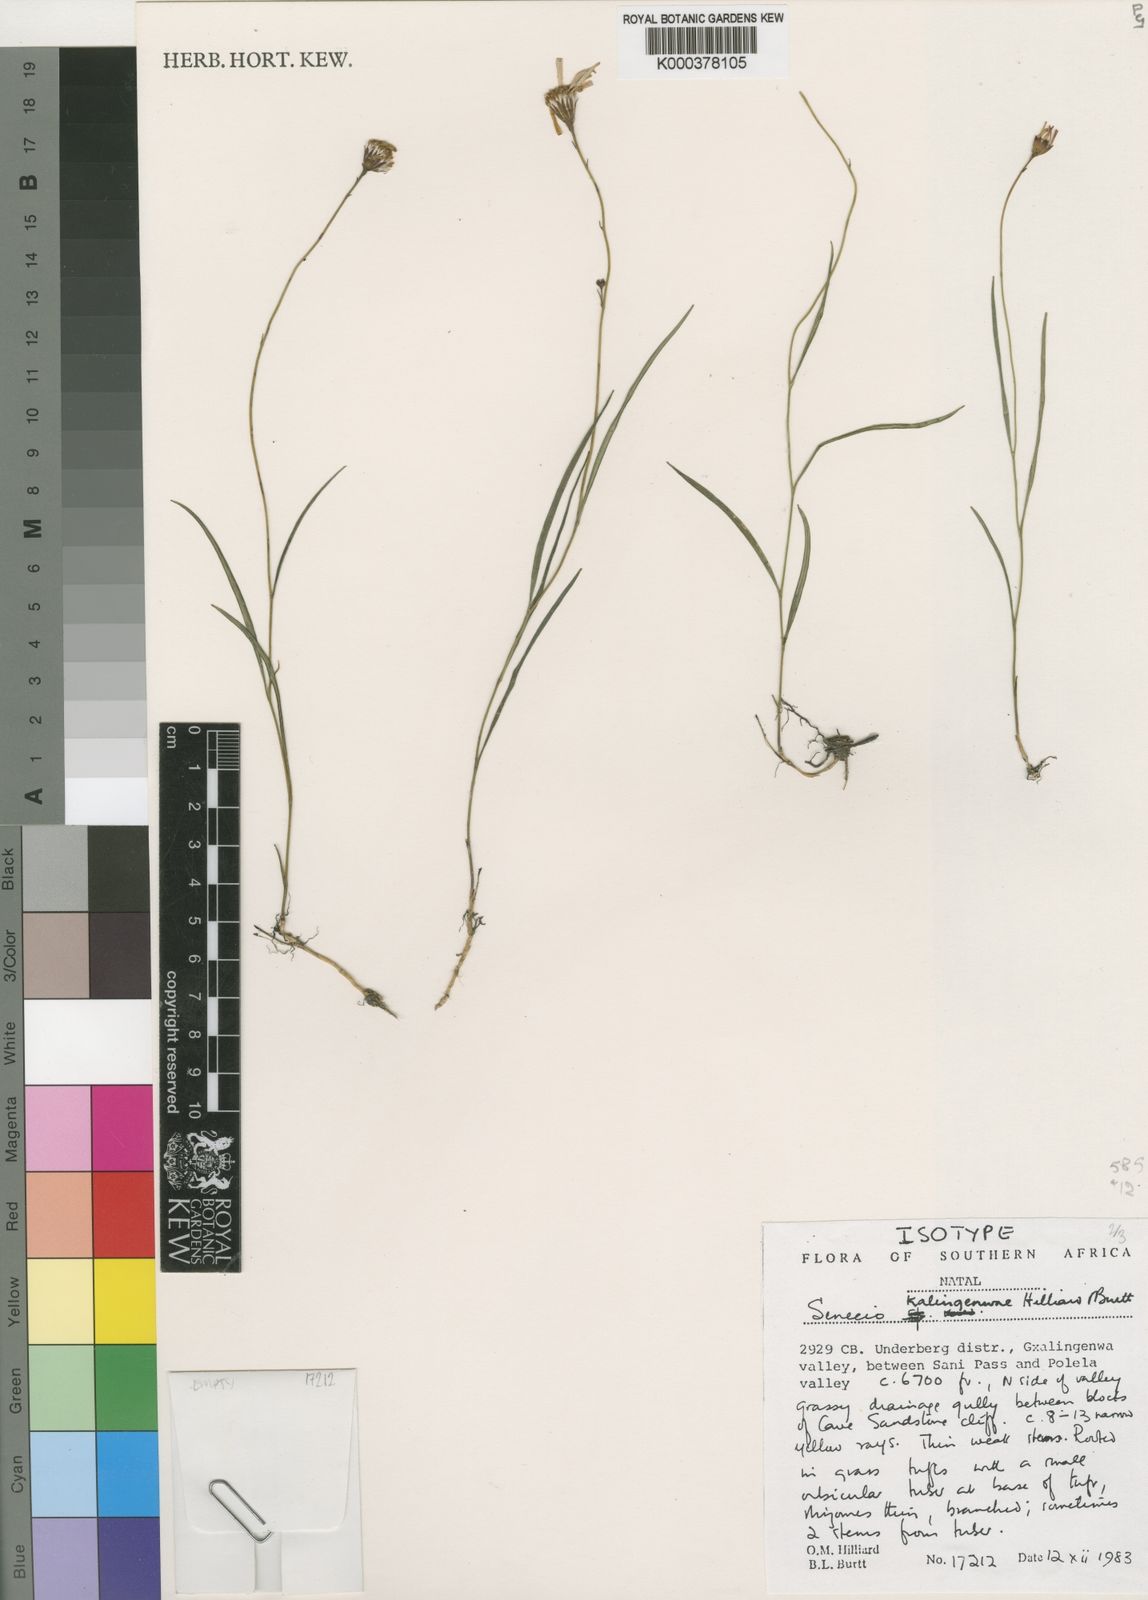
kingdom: Plantae
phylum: Tracheophyta
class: Magnoliopsida
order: Asterales
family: Asteraceae
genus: Senecio
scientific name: Senecio kalingenwae
